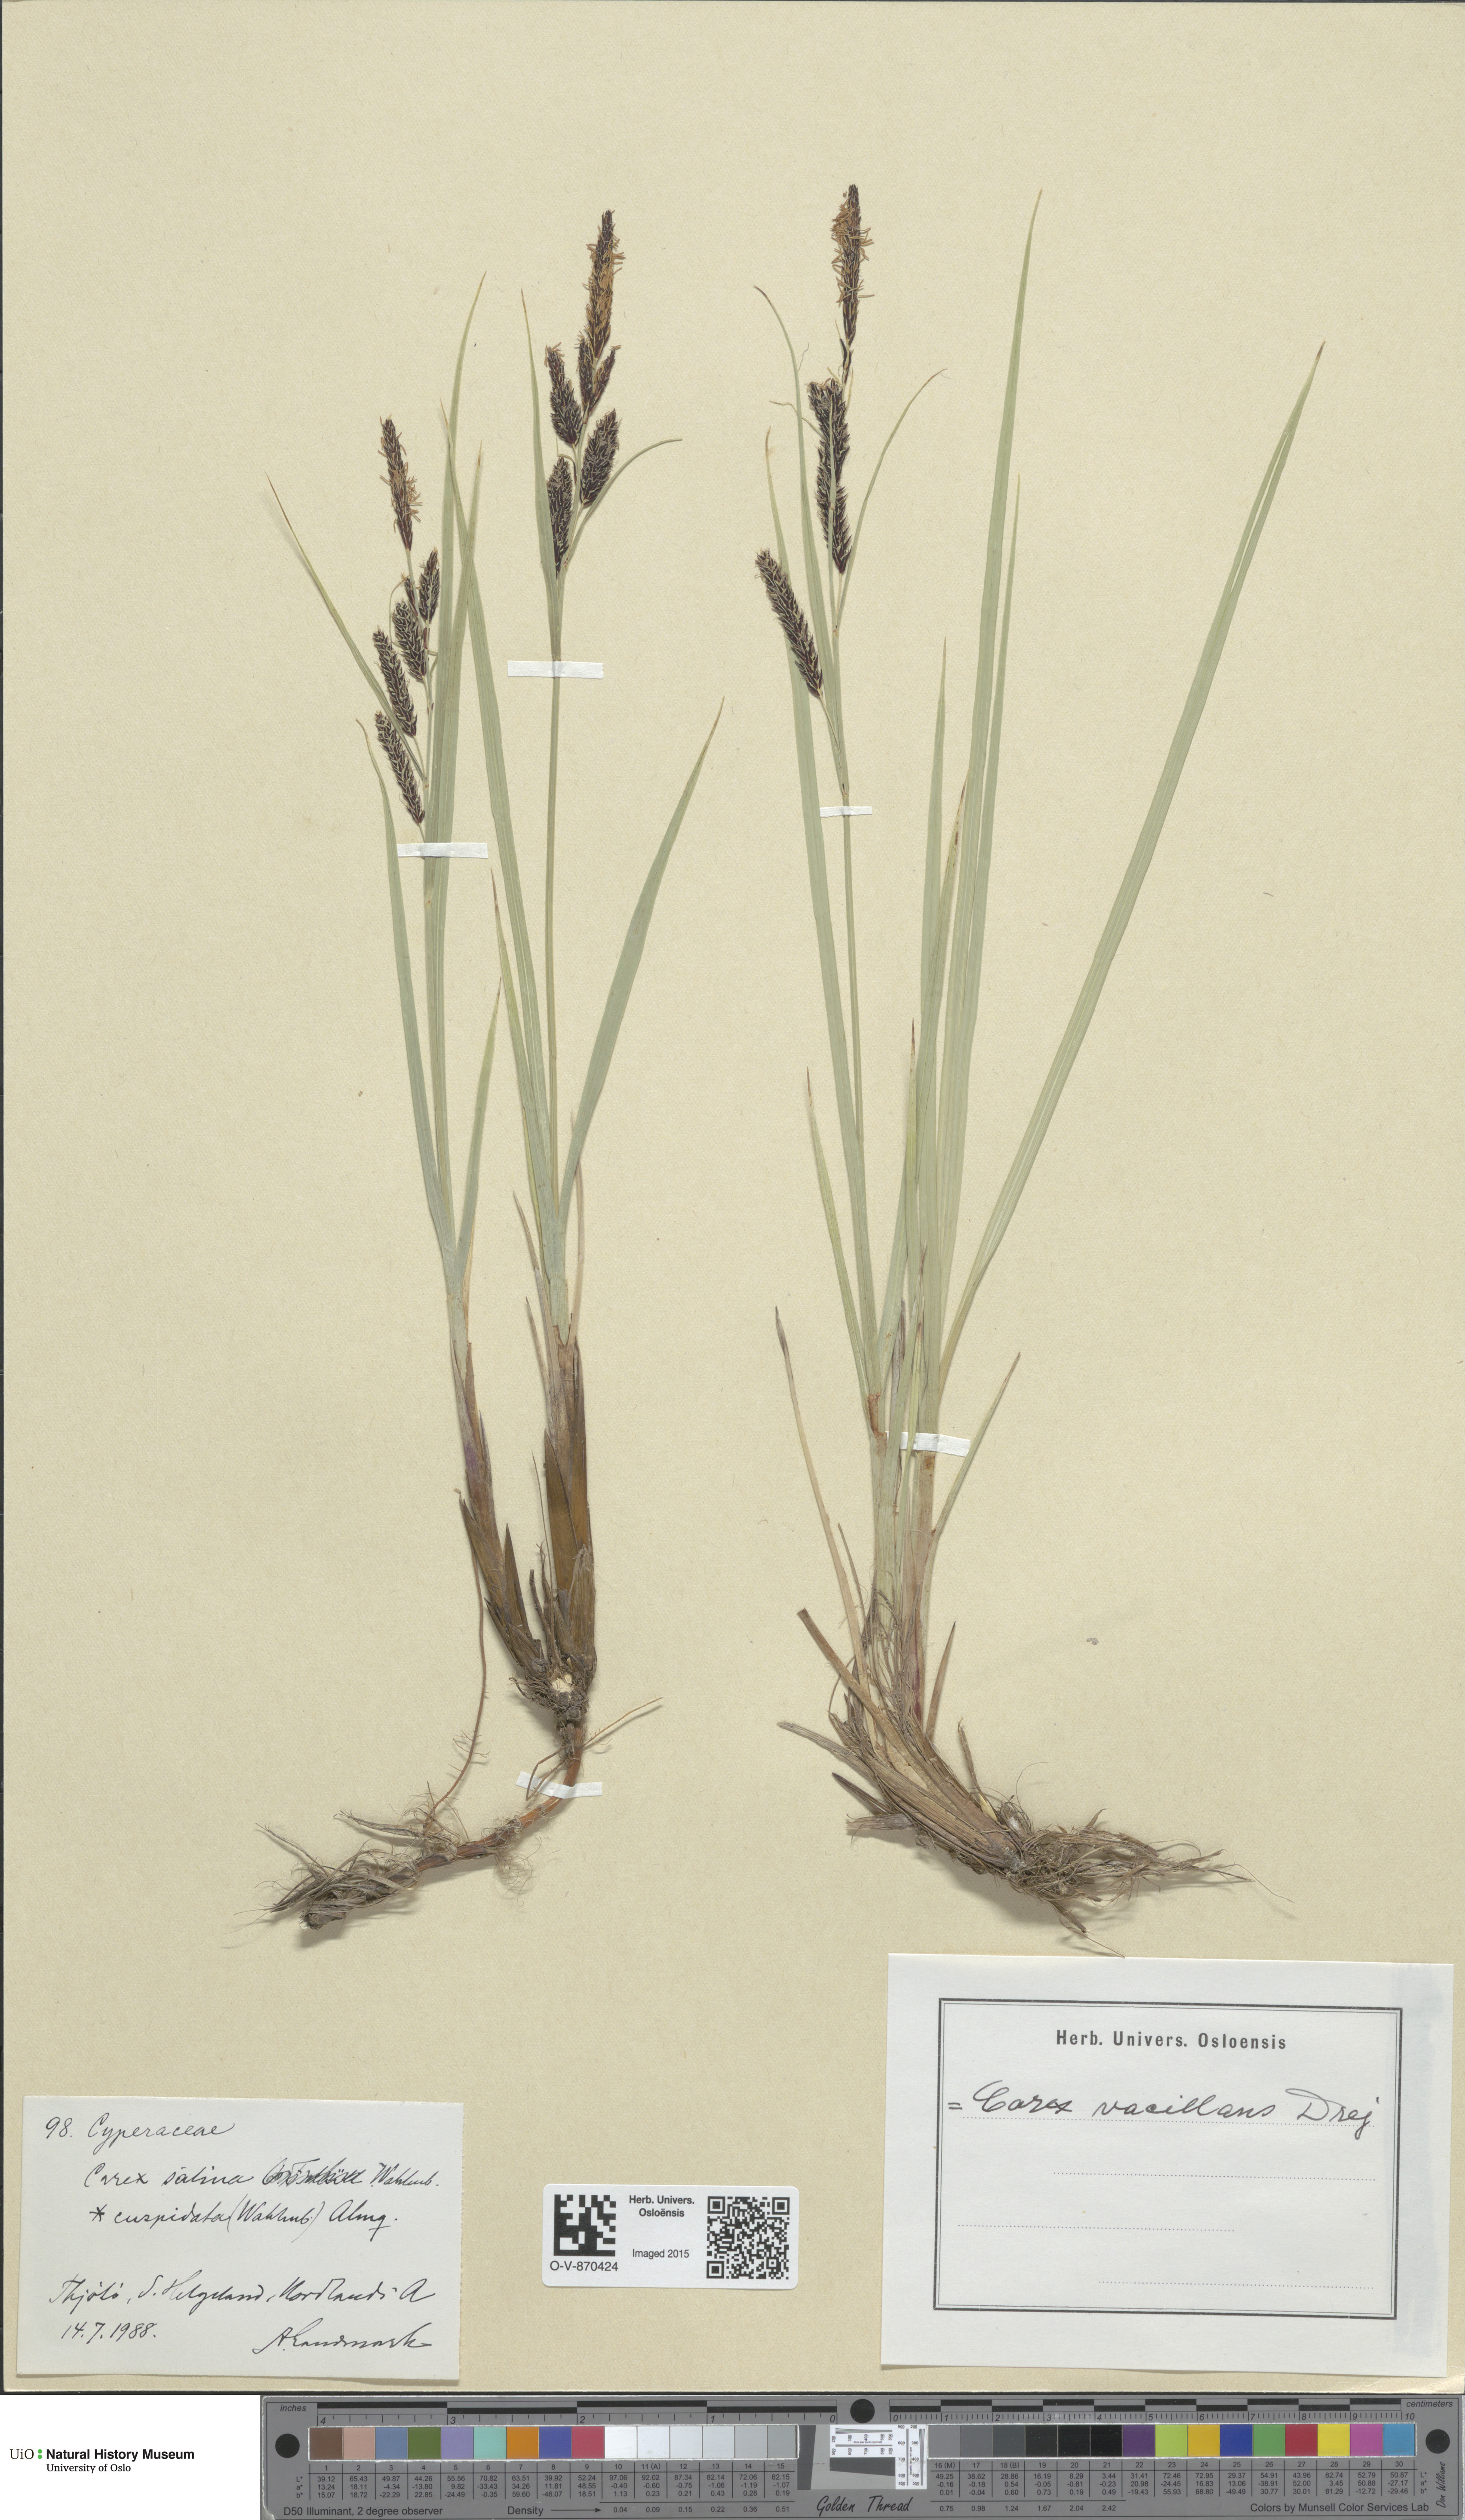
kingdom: Plantae
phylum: Tracheophyta
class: Liliopsida
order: Poales
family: Cyperaceae
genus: Carex
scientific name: Carex salina
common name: Saltmarsh sedge
